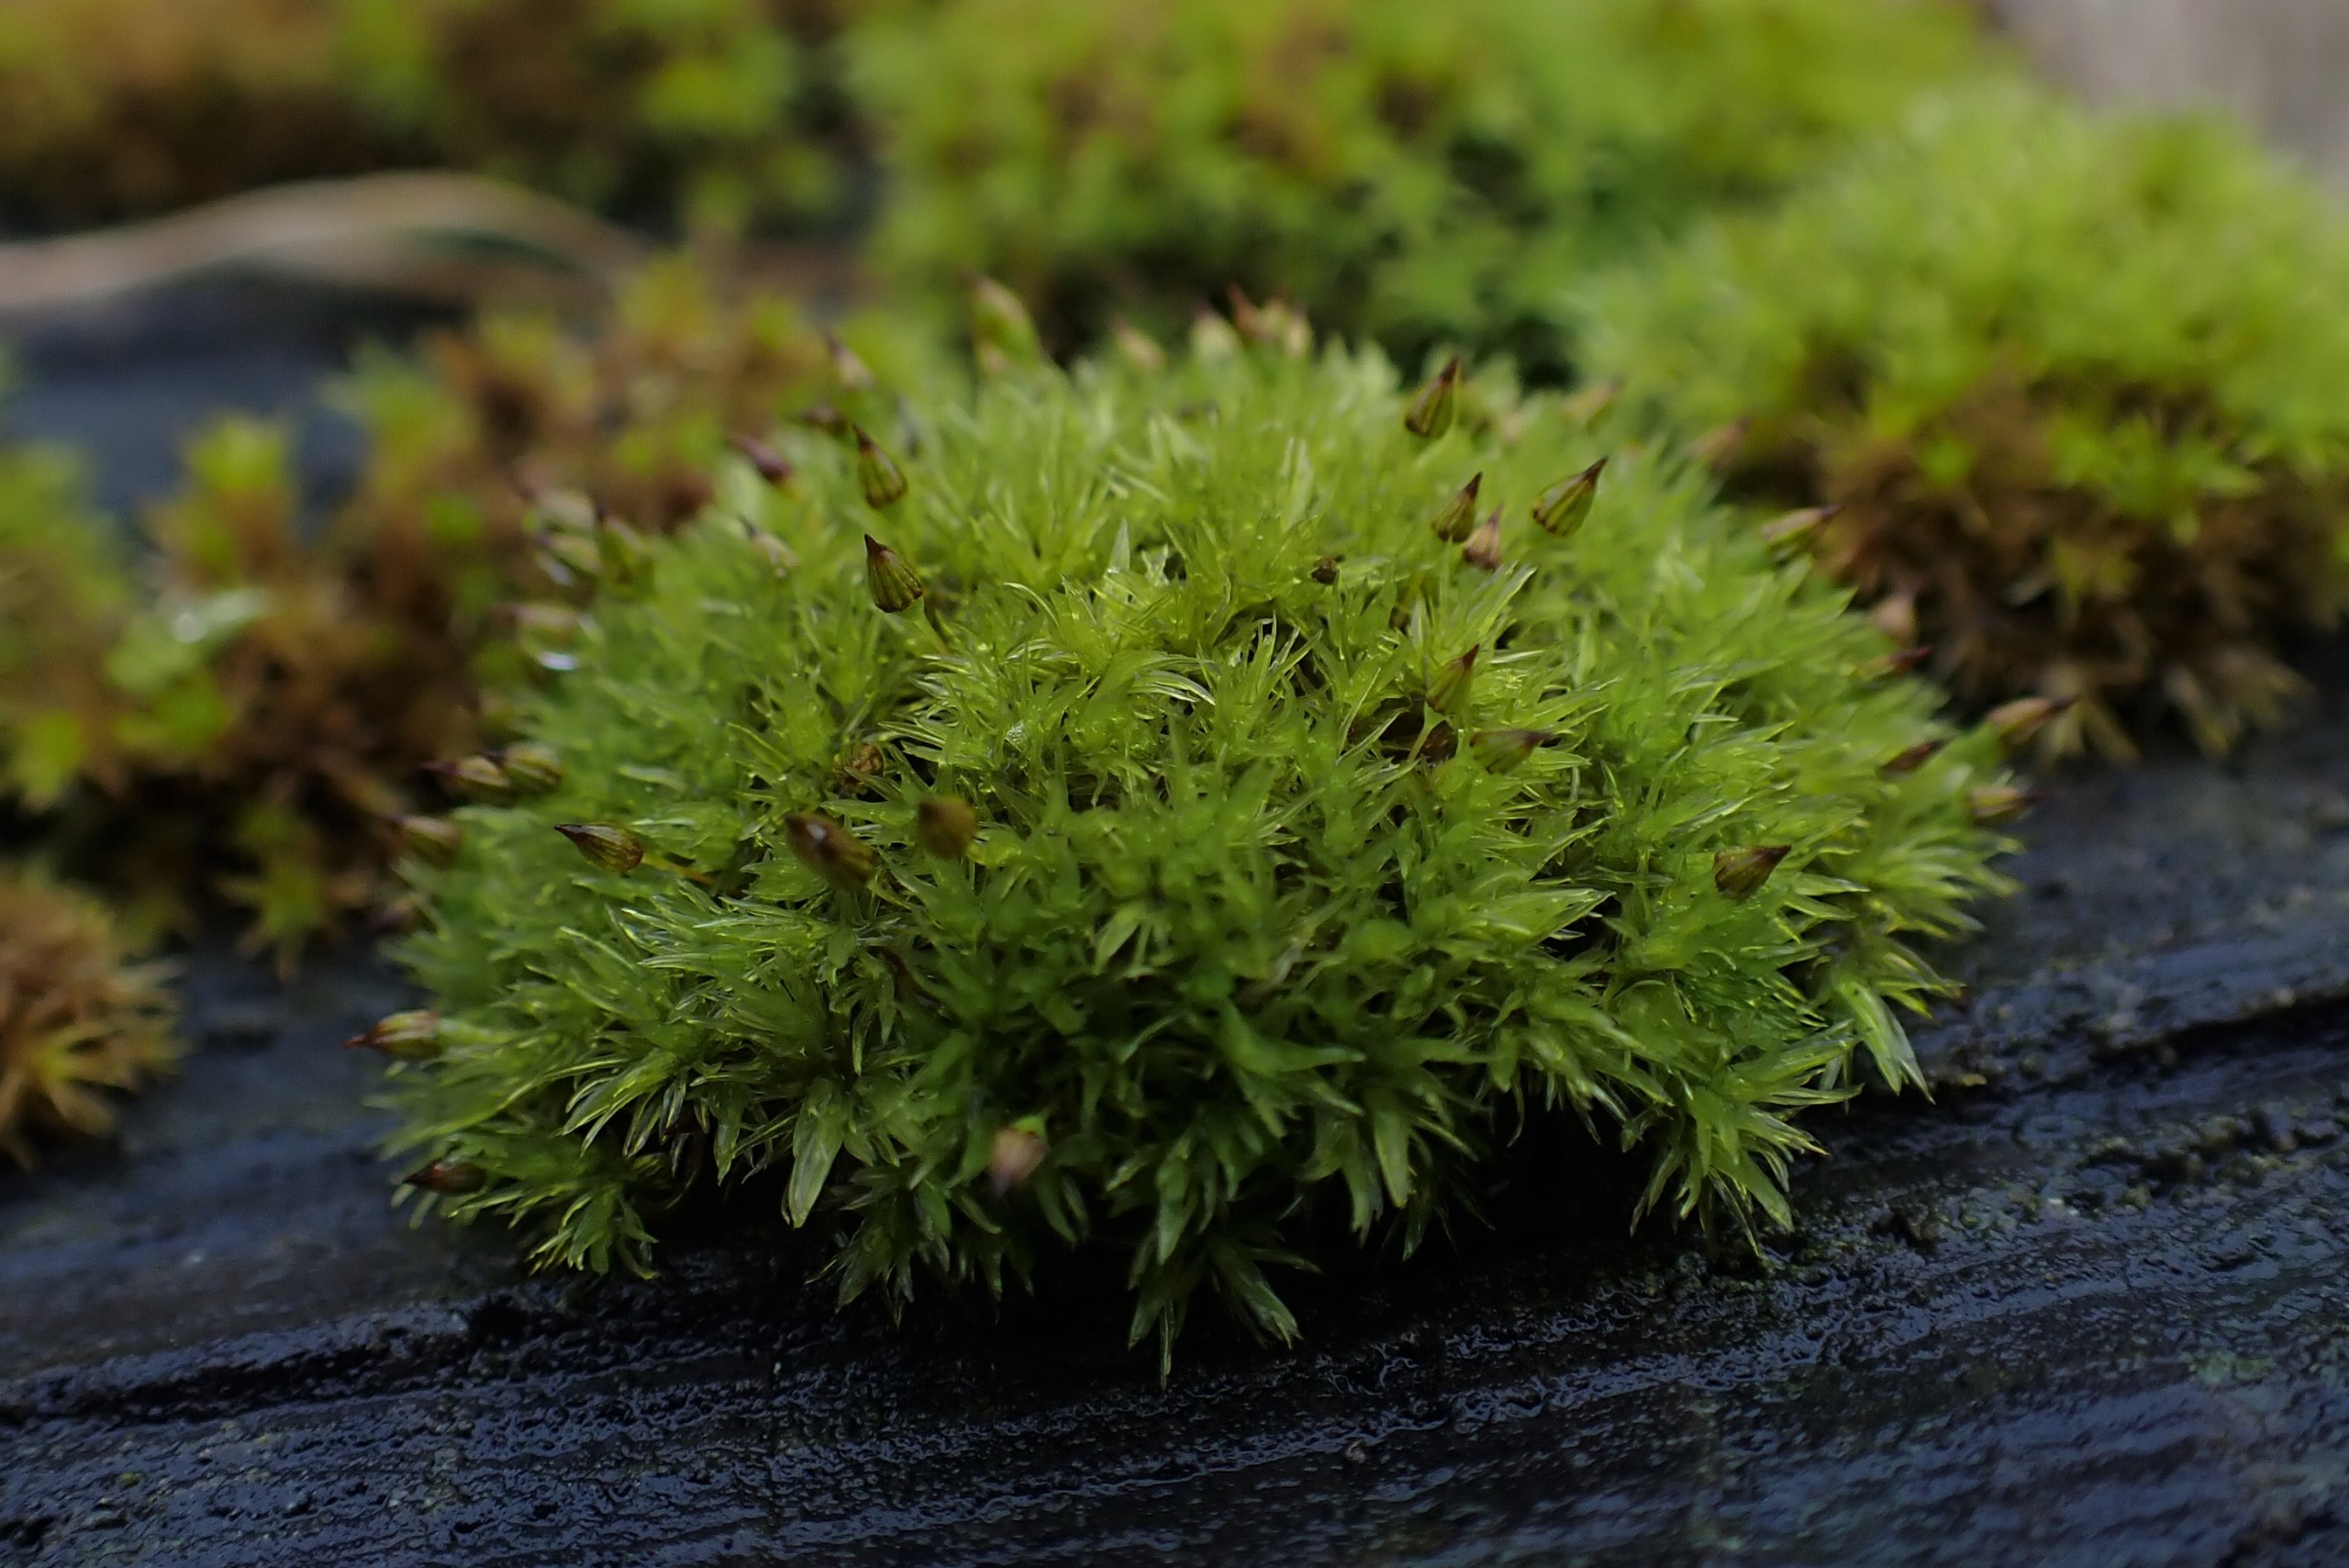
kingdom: Plantae
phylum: Bryophyta
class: Bryopsida
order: Orthotrichales
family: Orthotrichaceae
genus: Orthotrichum
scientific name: Orthotrichum pulchellum
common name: Smuk furehætte
